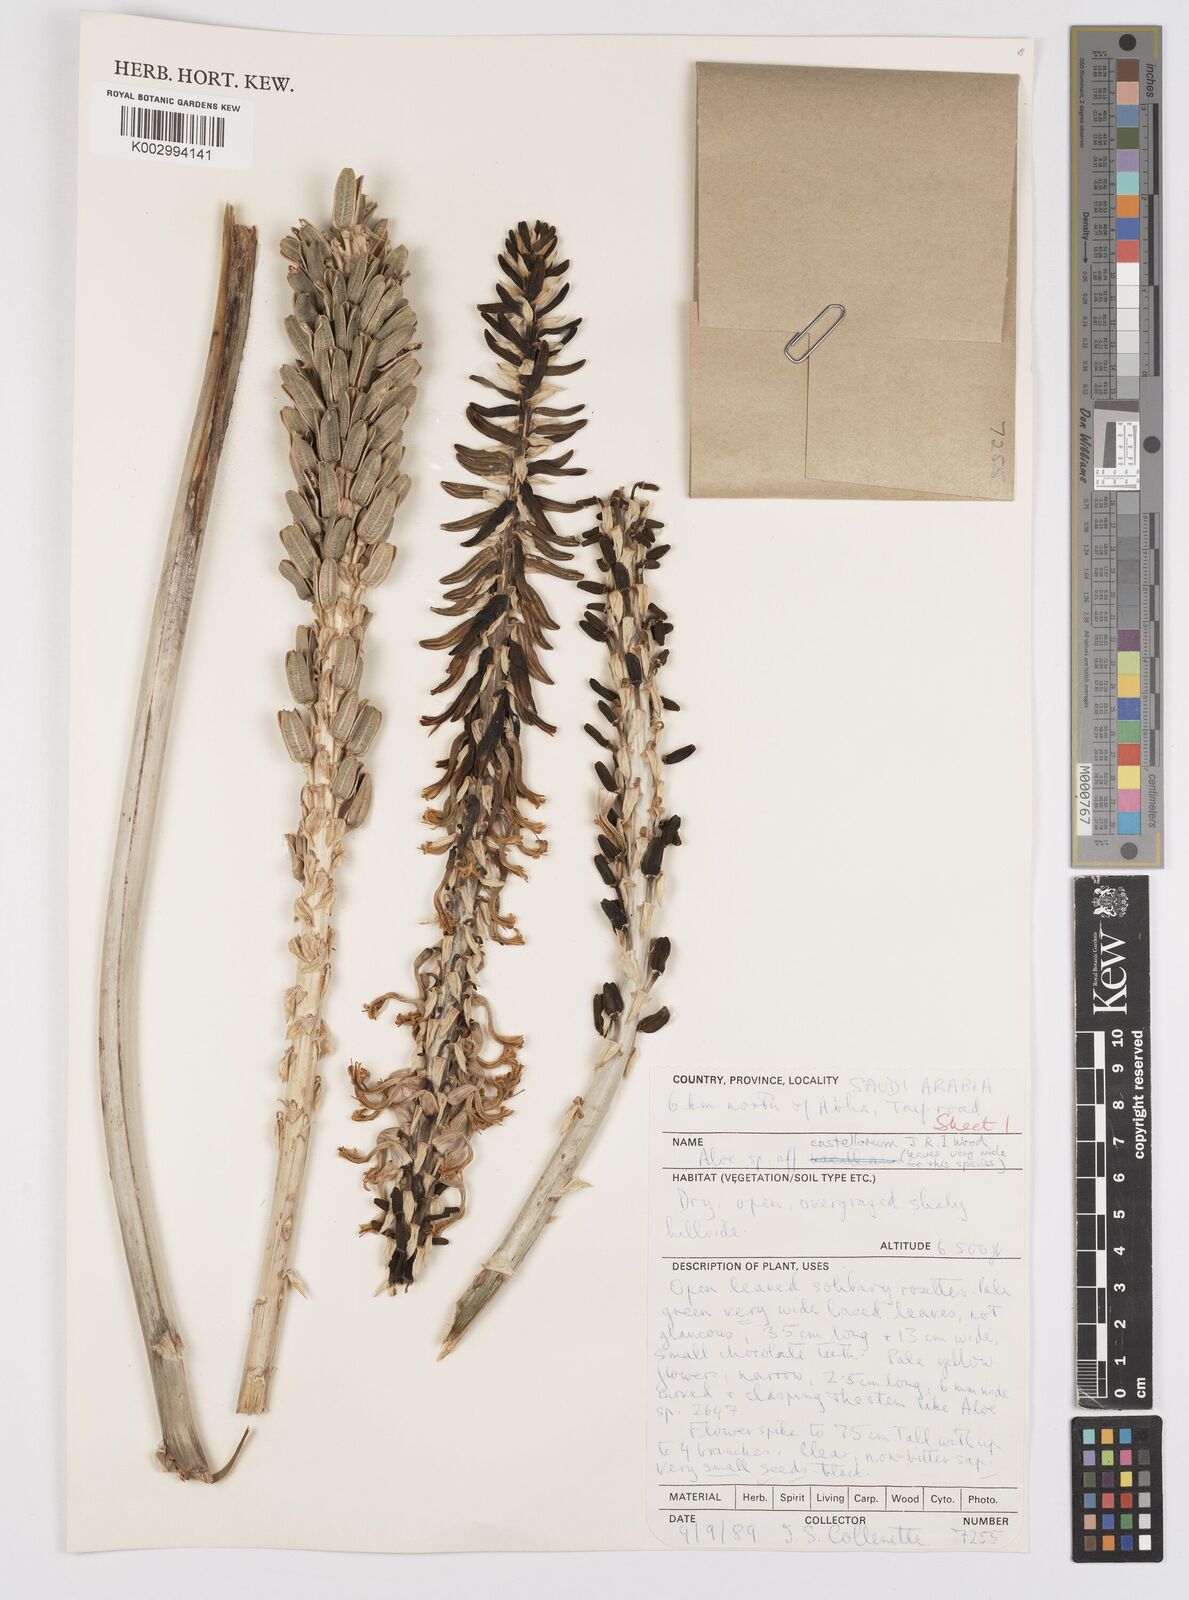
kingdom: Plantae
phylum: Tracheophyta
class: Liliopsida
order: Asparagales
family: Asphodelaceae
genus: Aloe
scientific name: Aloe castellorum
